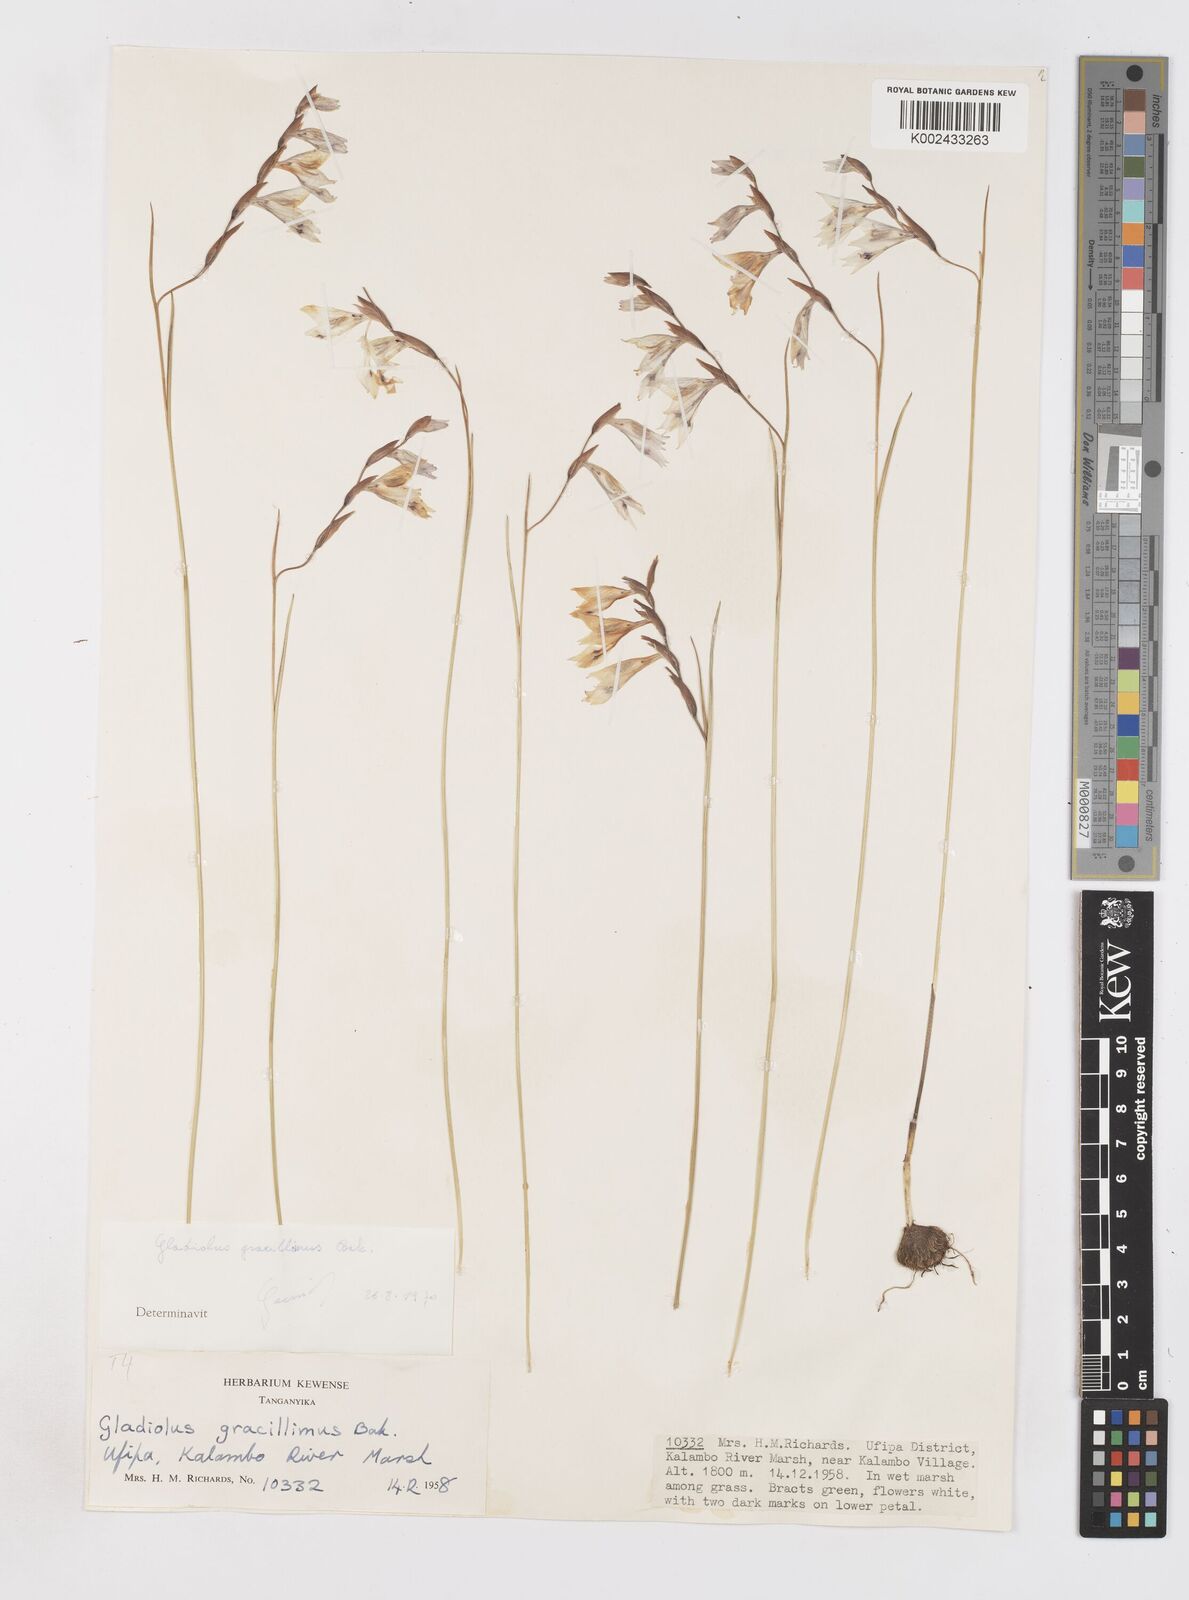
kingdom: Plantae
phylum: Tracheophyta
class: Liliopsida
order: Asparagales
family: Iridaceae
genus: Gladiolus
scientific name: Gladiolus gracillimus
